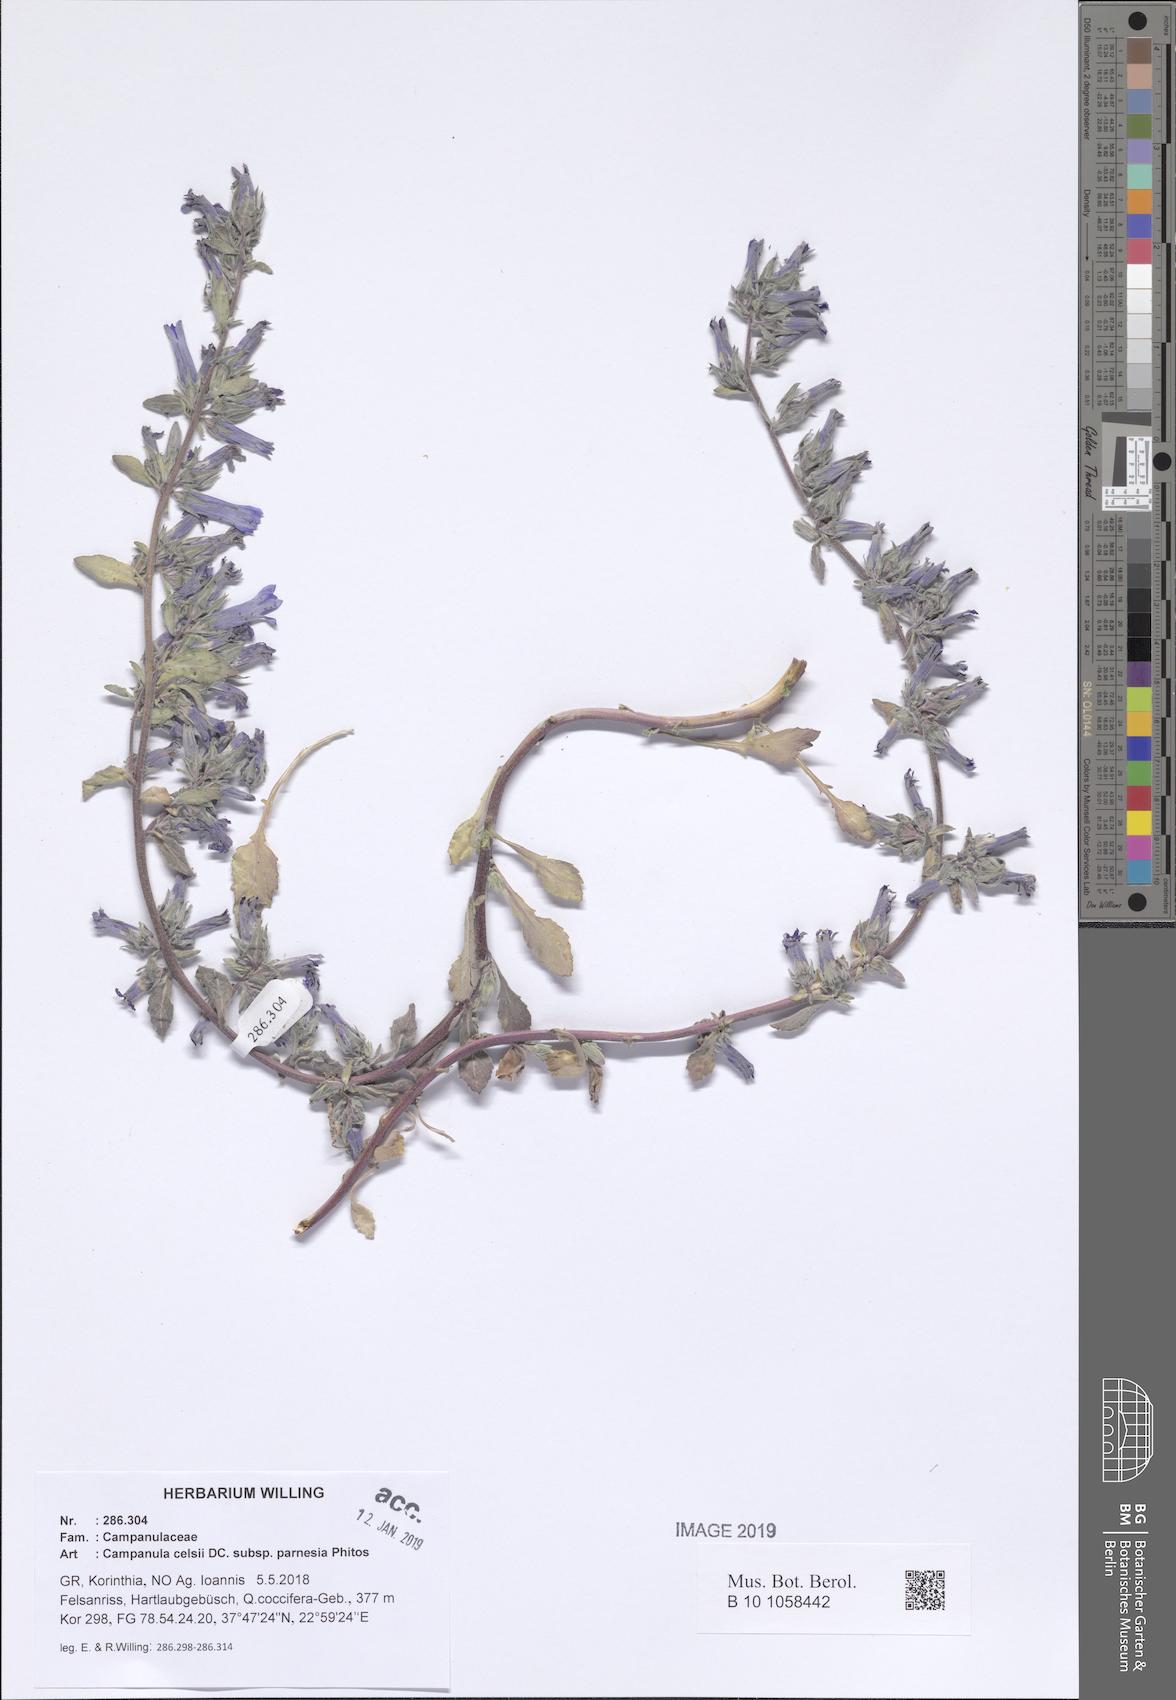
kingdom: Plantae
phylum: Tracheophyta
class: Magnoliopsida
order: Asterales
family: Campanulaceae
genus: Campanula
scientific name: Campanula celsii
